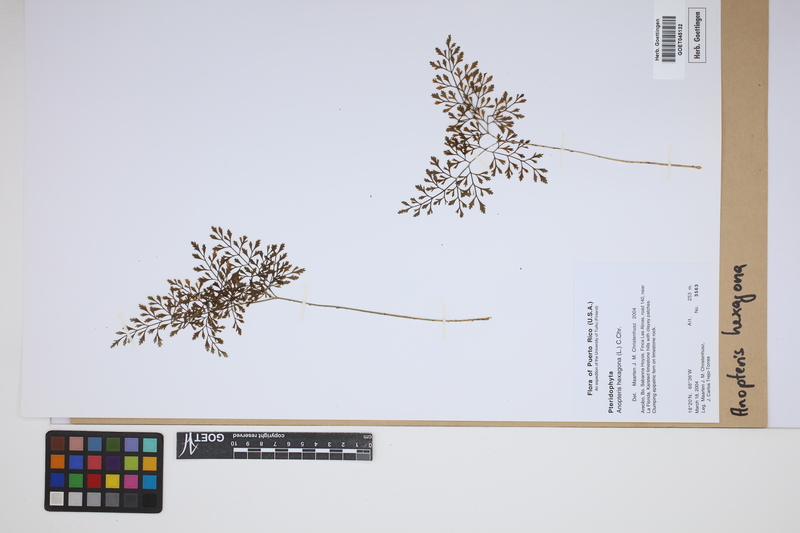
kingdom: Plantae
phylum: Tracheophyta
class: Polypodiopsida
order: Polypodiales
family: Pteridaceae
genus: Pteris
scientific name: Pteris hexagona
